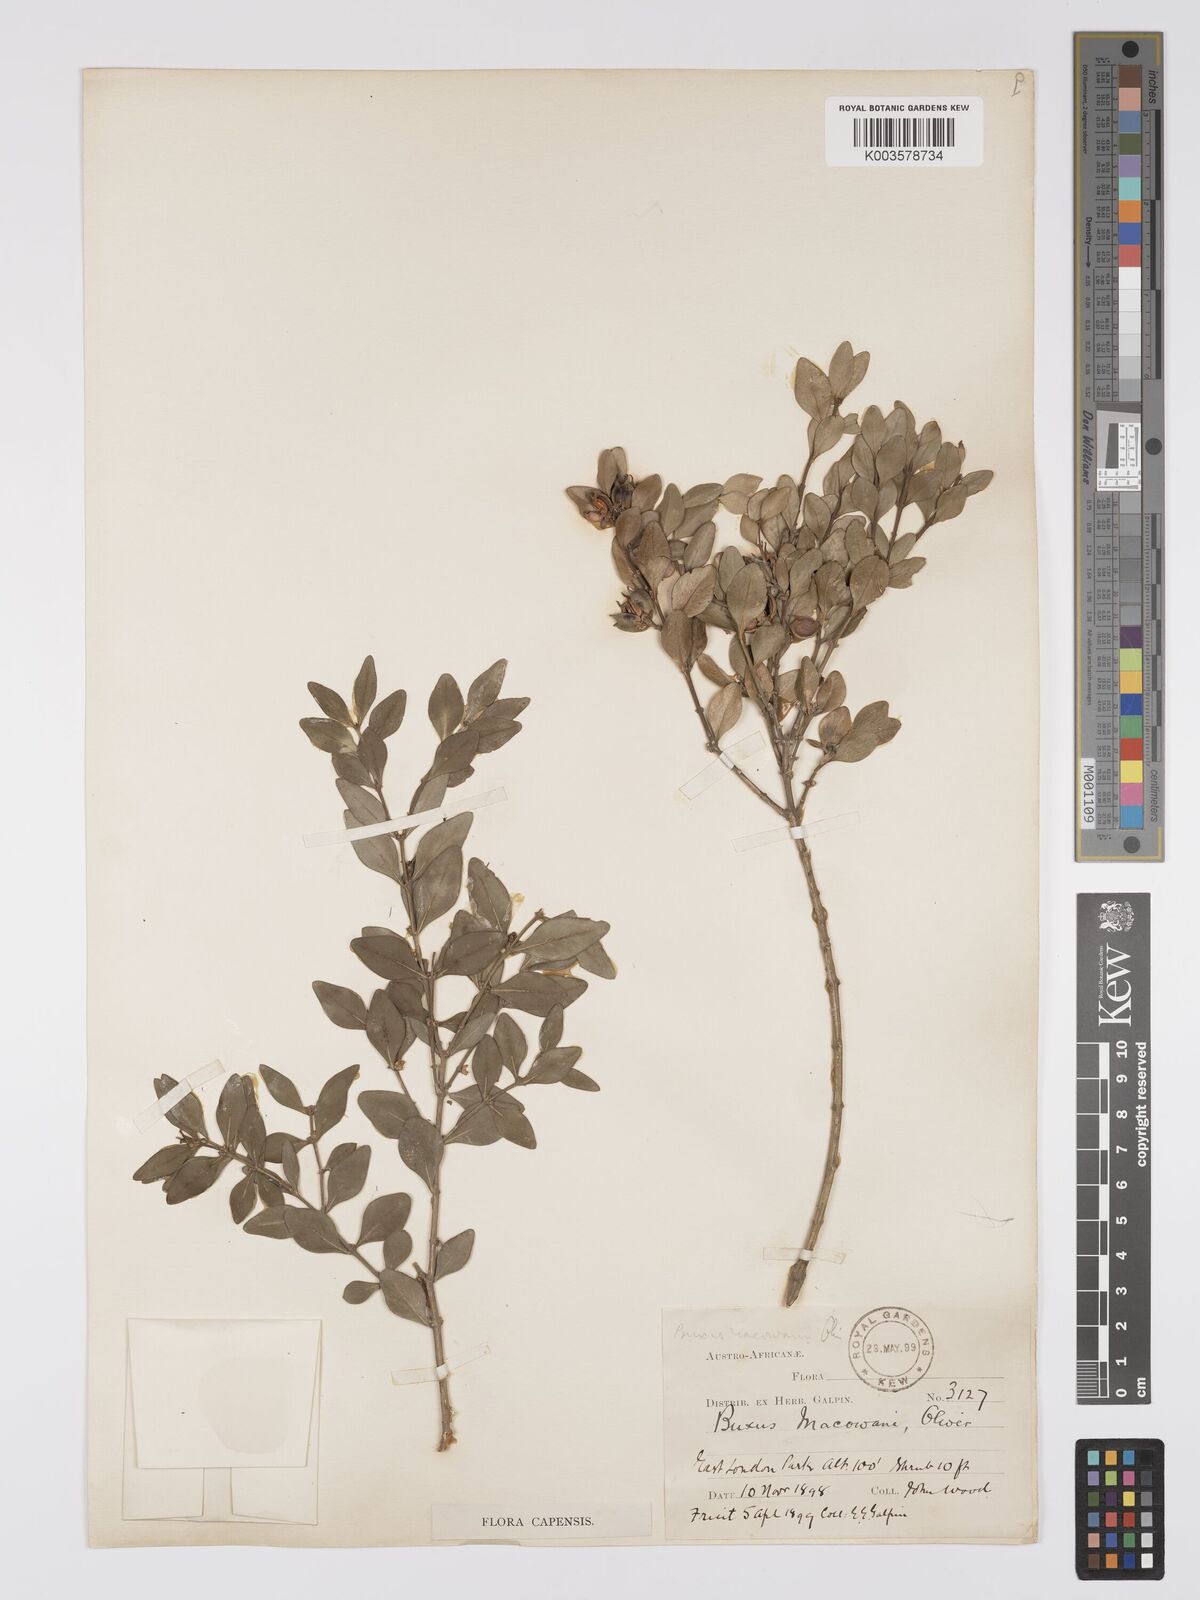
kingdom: Plantae
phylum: Tracheophyta
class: Magnoliopsida
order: Buxales
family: Buxaceae
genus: Buxus
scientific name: Buxus macowanii
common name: Cape box
